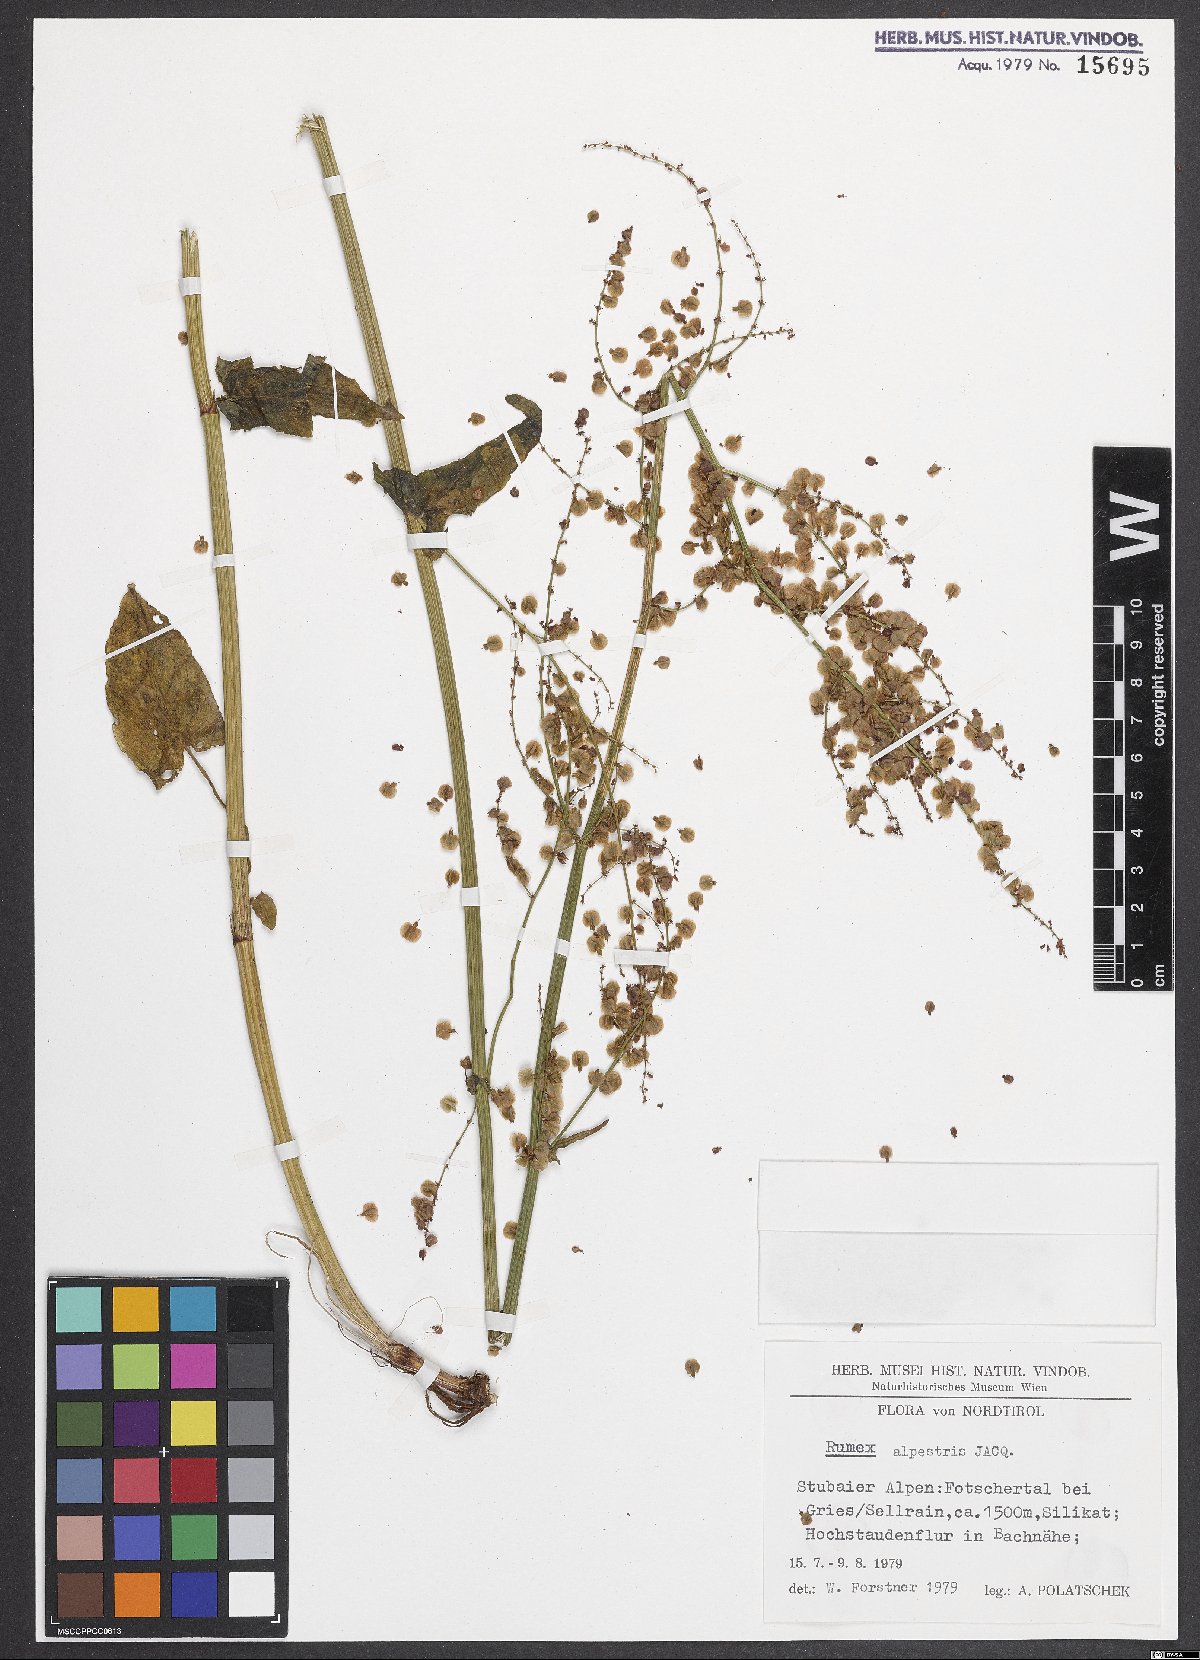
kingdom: Plantae
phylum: Tracheophyta
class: Magnoliopsida
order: Caryophyllales
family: Polygonaceae
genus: Rumex
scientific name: Rumex scutatus
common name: French sorrel
